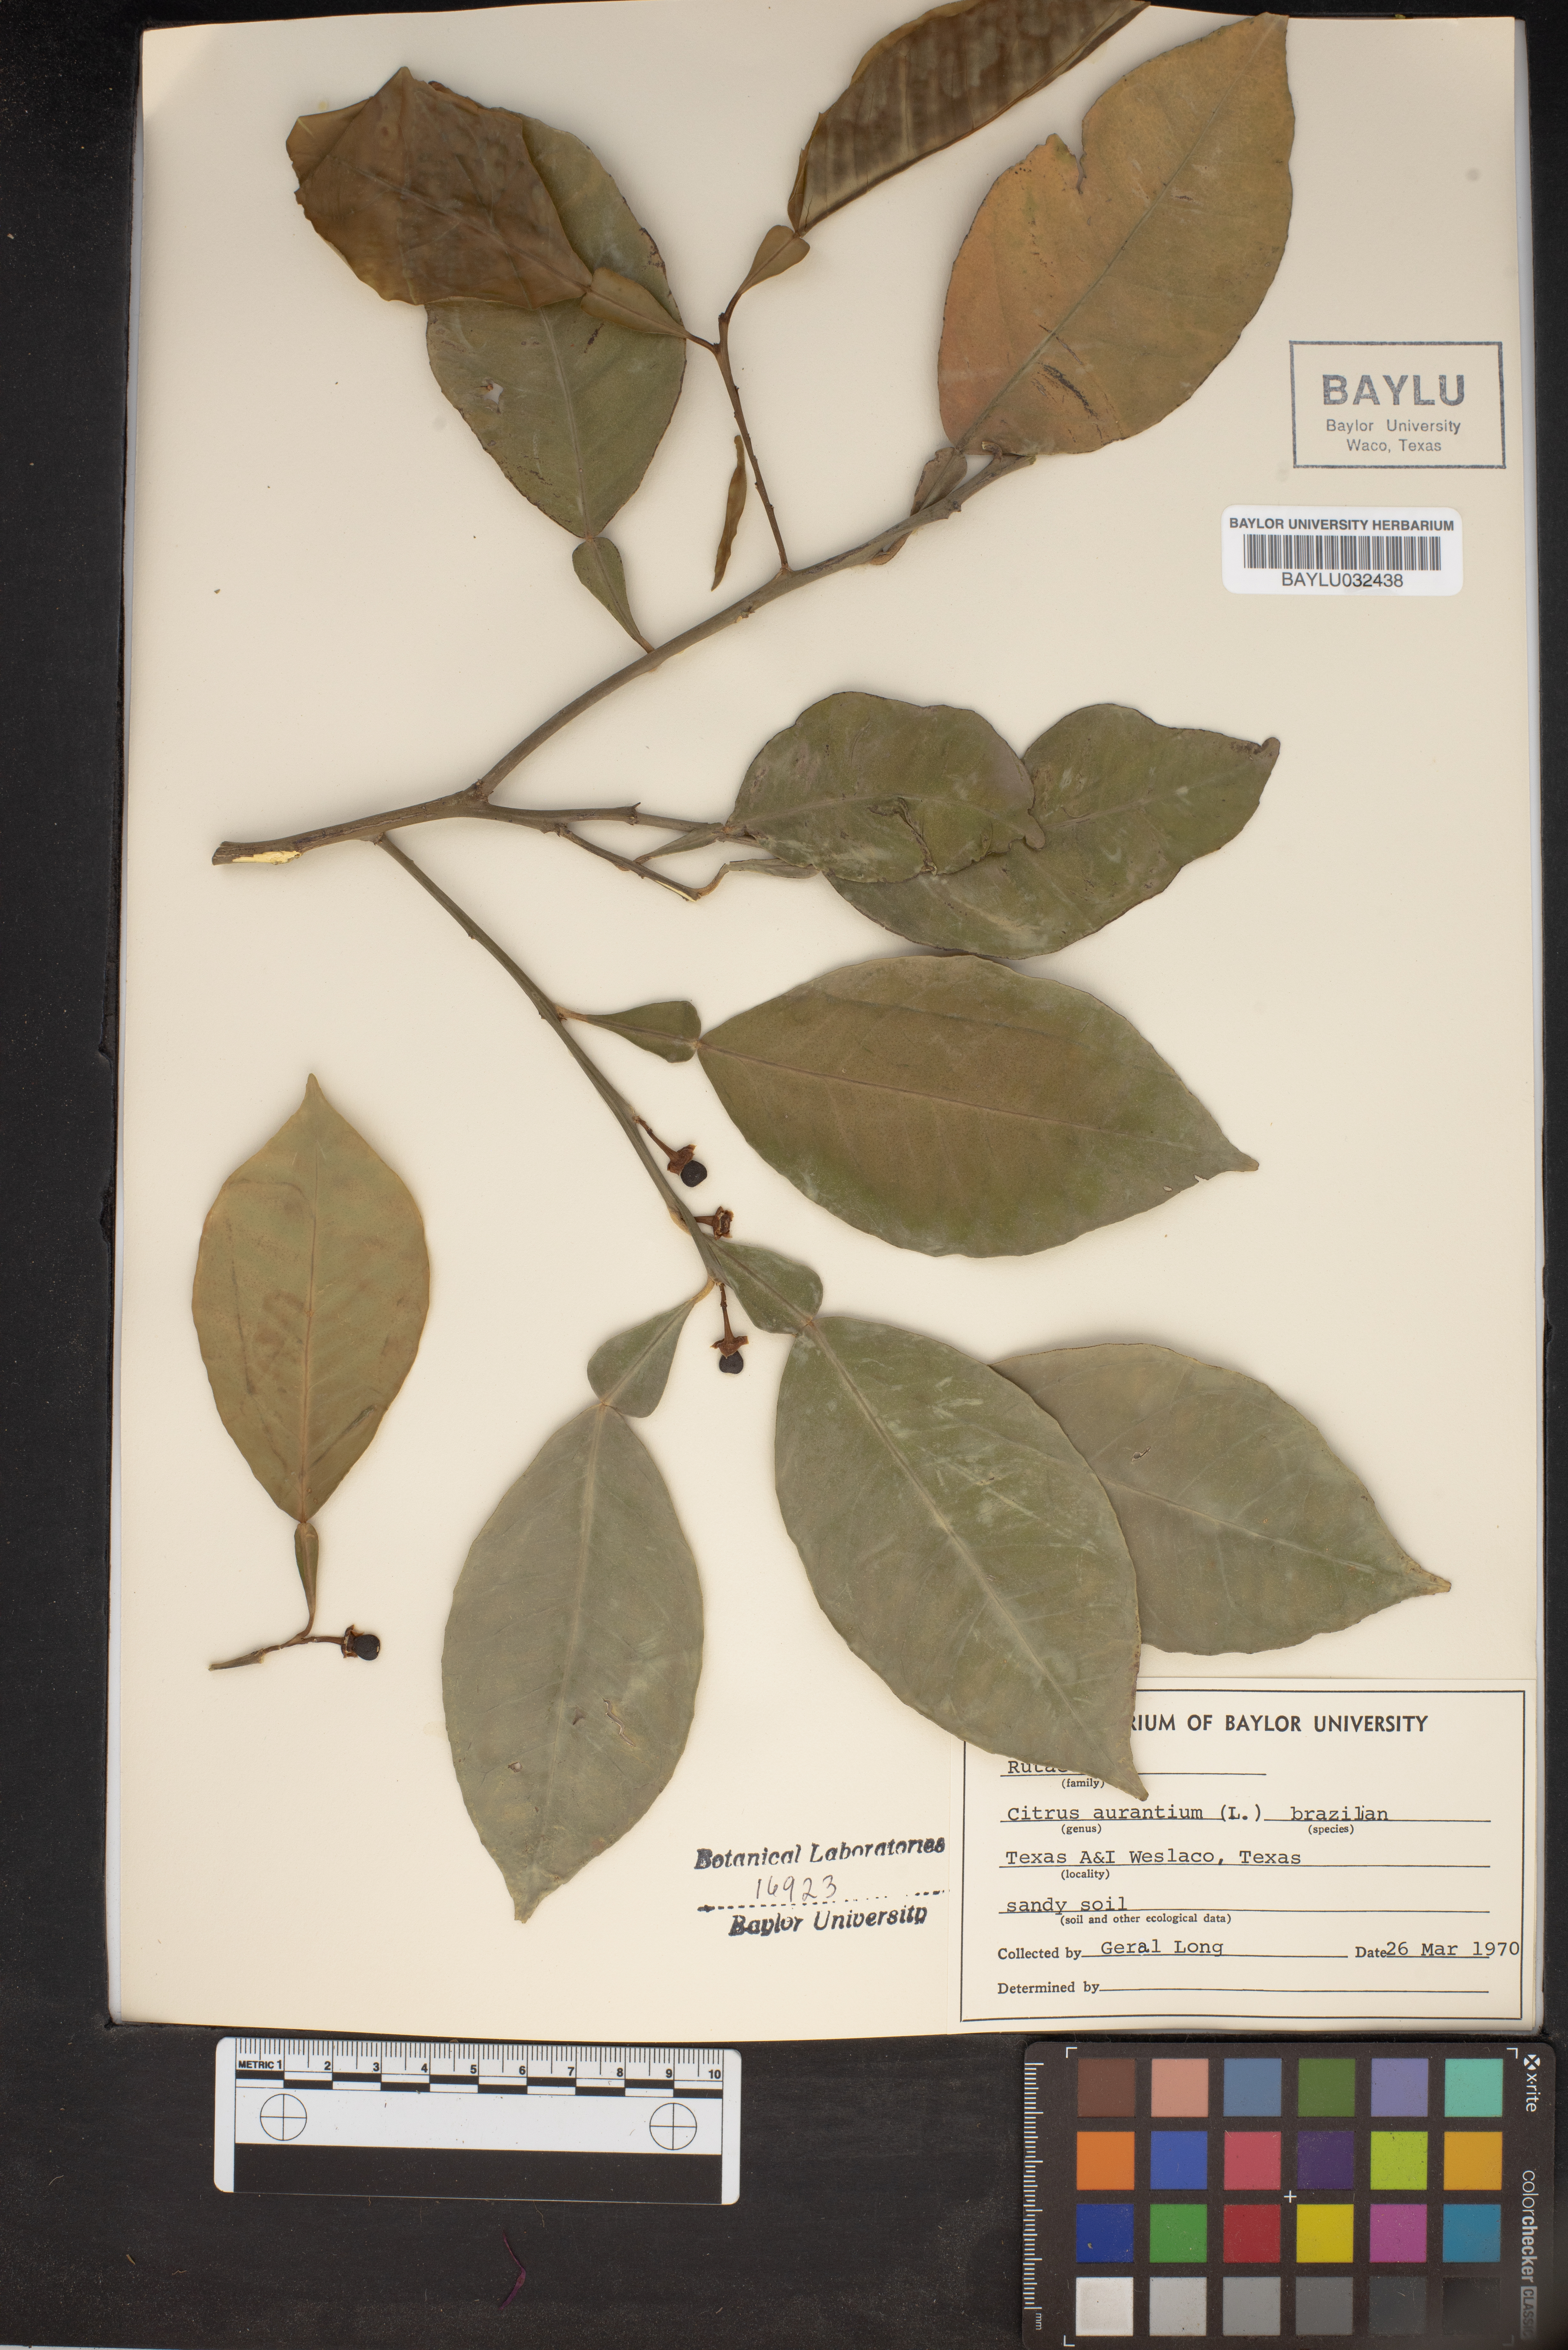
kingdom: Plantae
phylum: Tracheophyta
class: Magnoliopsida
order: Sapindales
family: Rutaceae
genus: Citrus
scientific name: Citrus aurantium
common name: Sour orange
